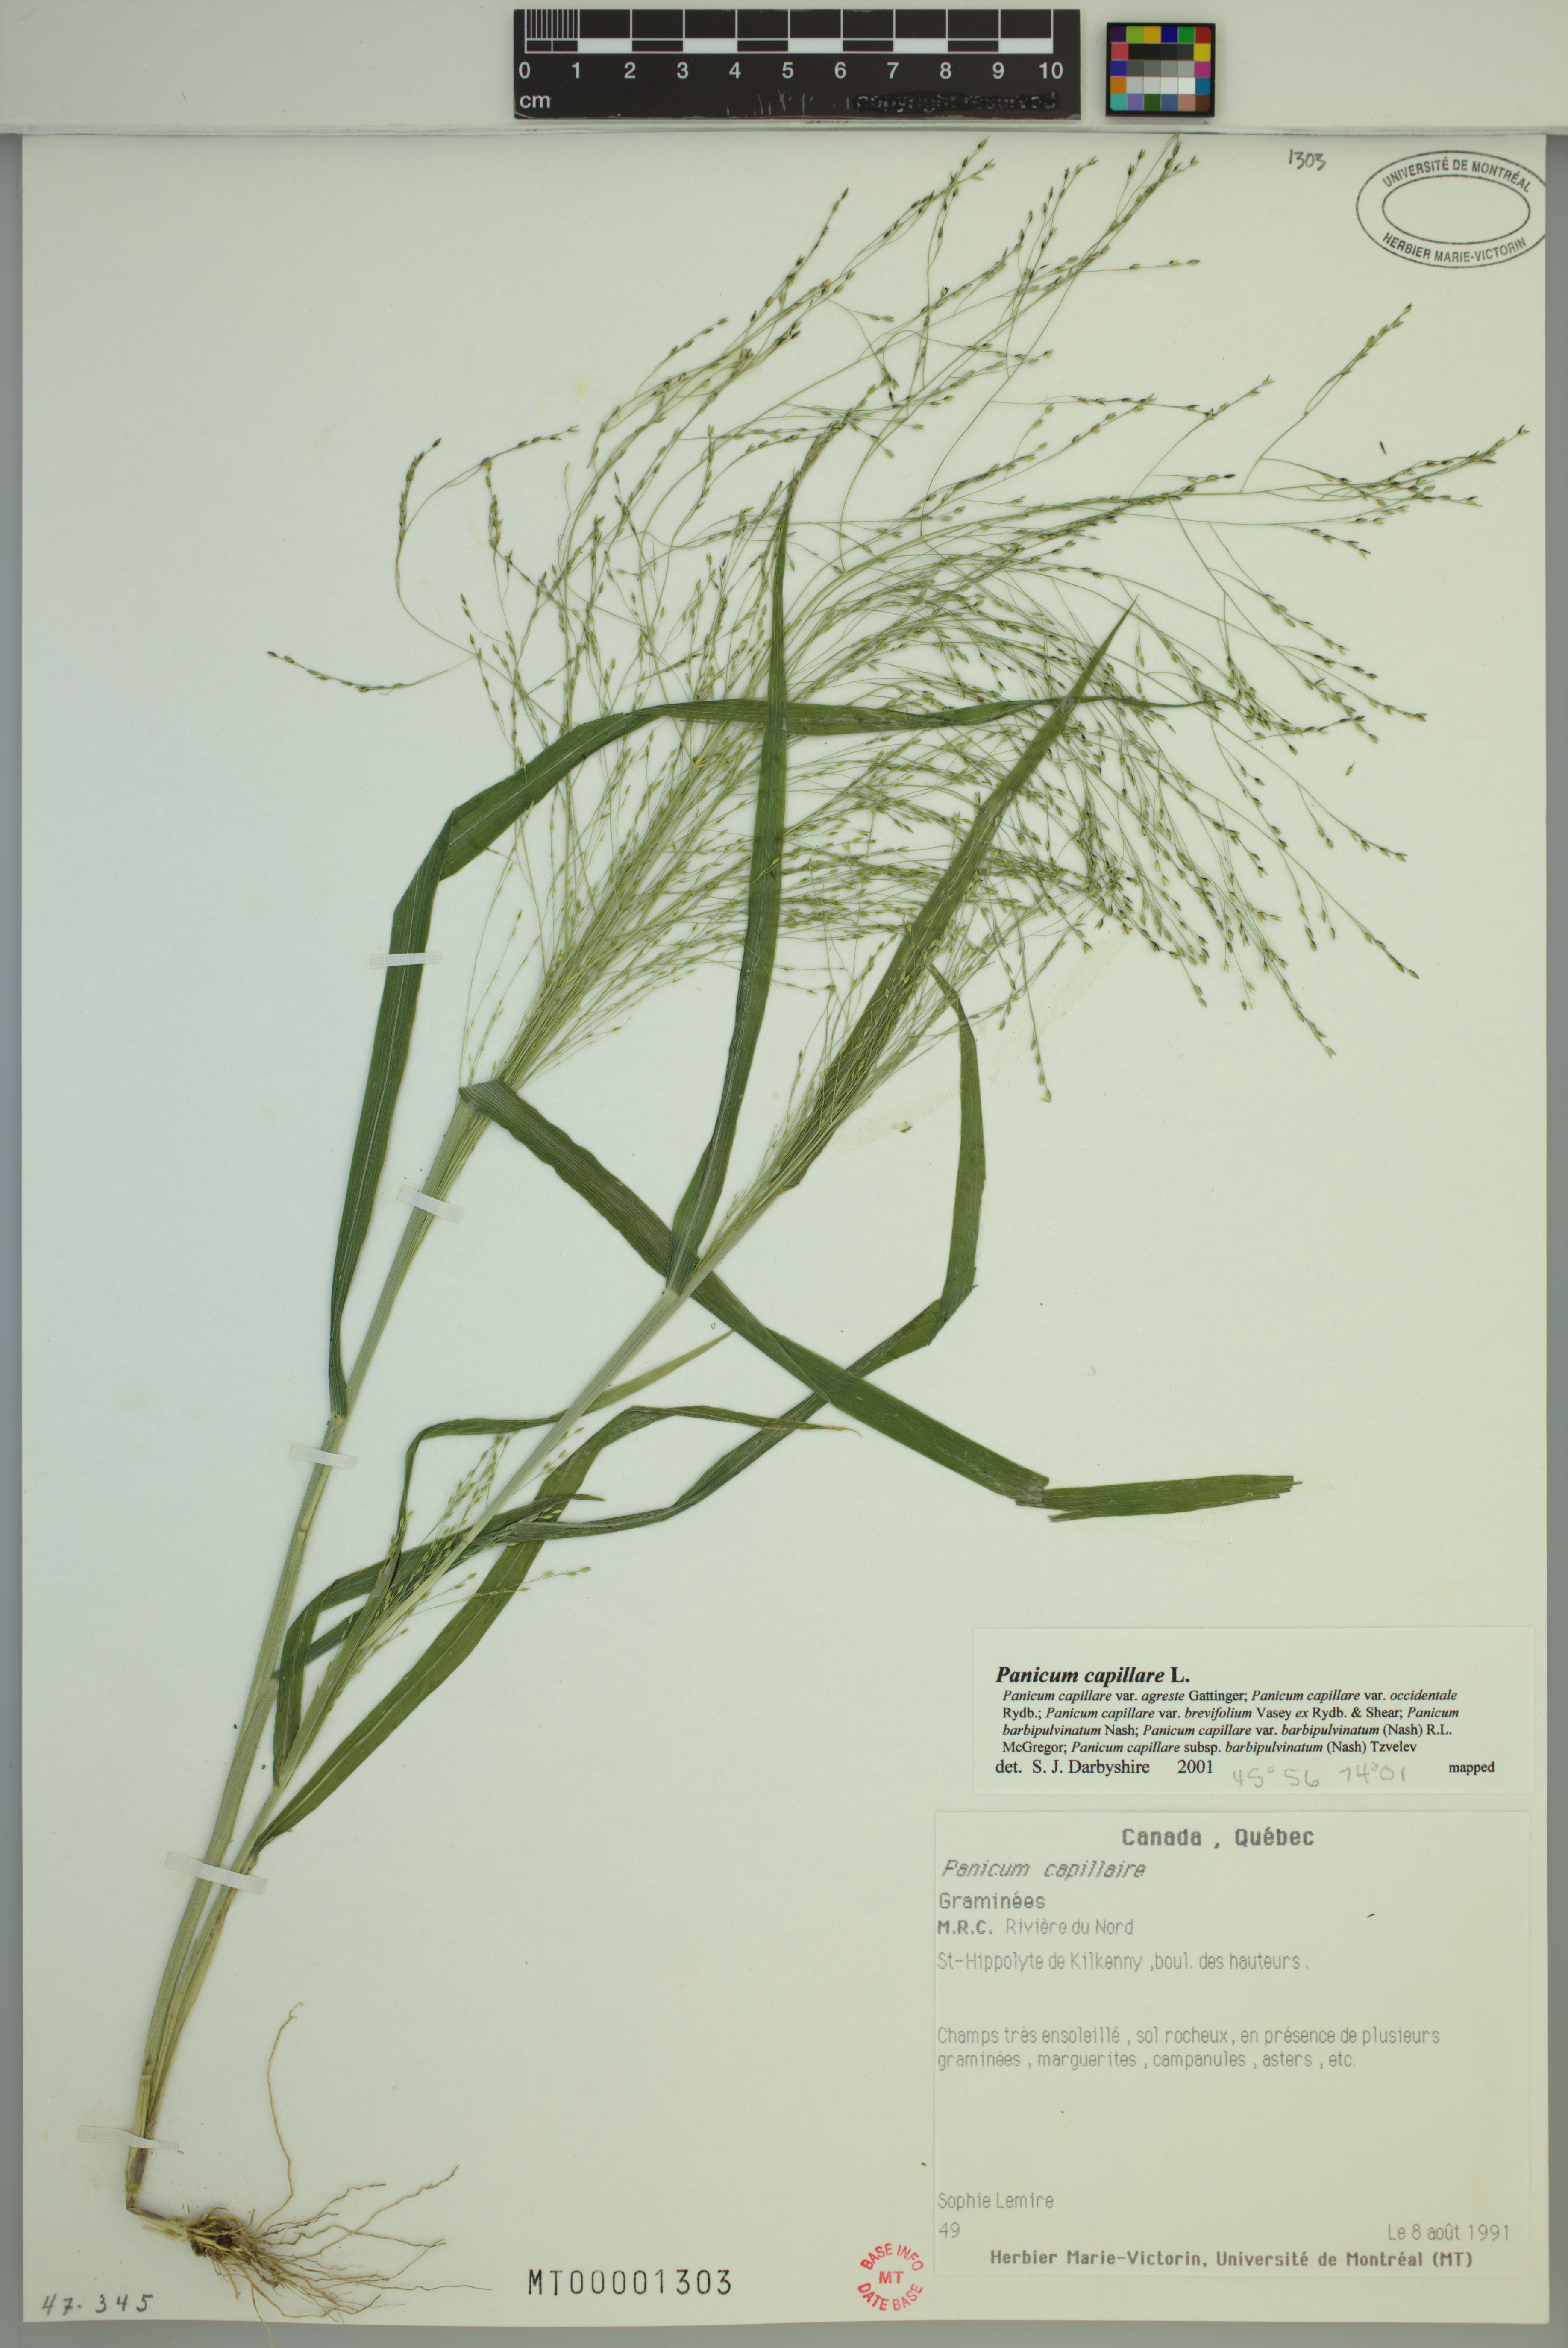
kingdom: Plantae
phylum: Tracheophyta
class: Liliopsida
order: Poales
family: Poaceae
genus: Panicum
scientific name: Panicum capillare
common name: Witch-grass
